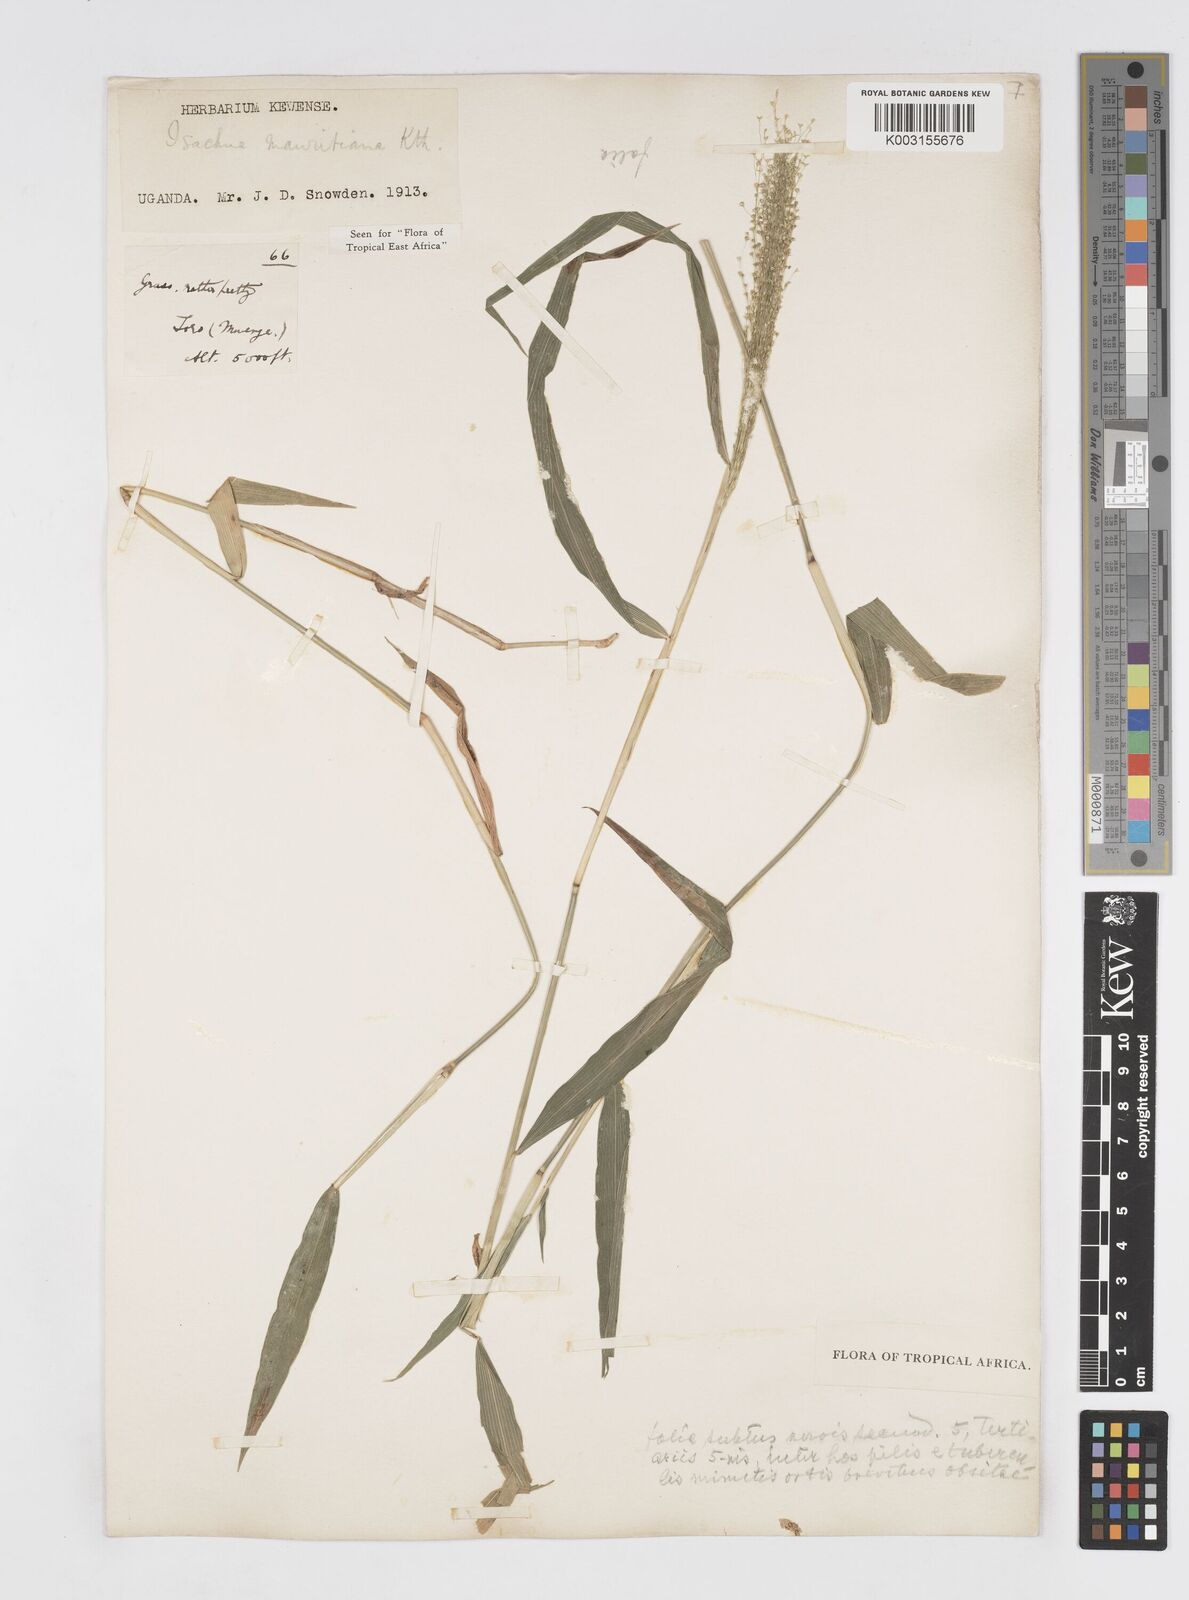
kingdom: Plantae
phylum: Tracheophyta
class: Liliopsida
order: Poales
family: Poaceae
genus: Isachne
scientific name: Isachne mauritiana
